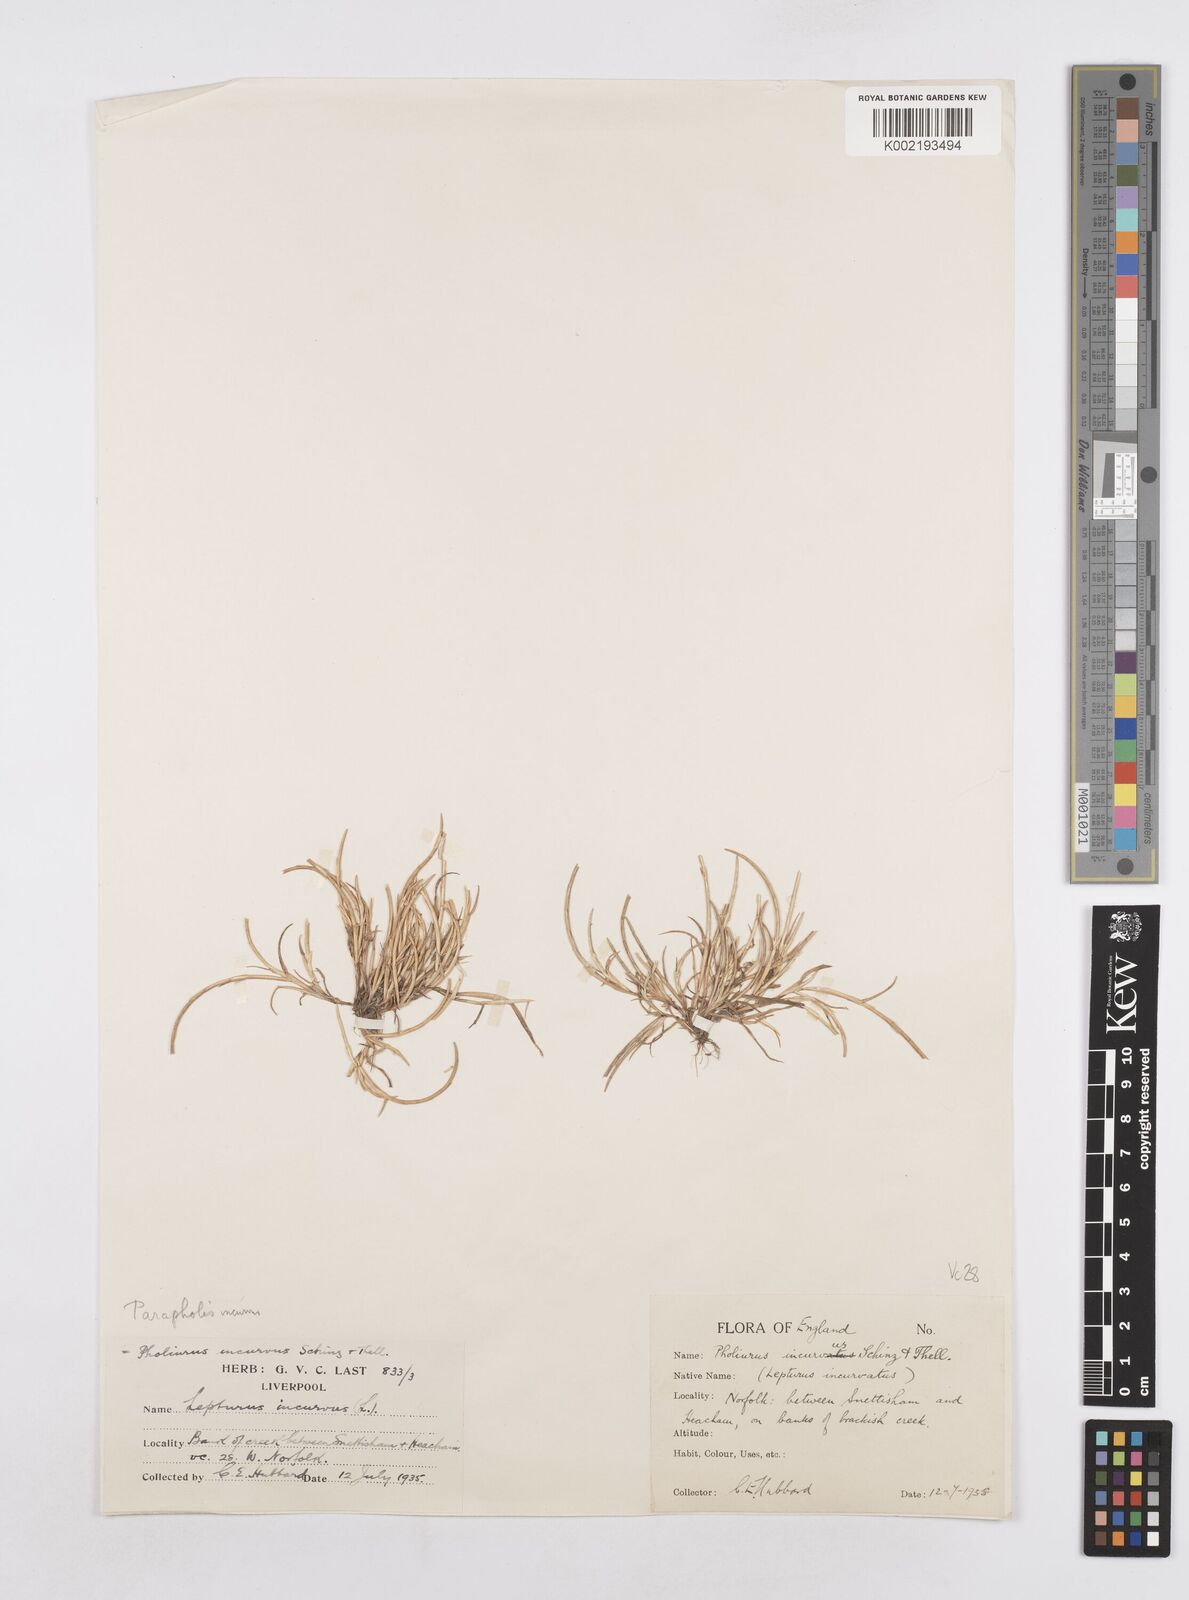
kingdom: Plantae
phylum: Tracheophyta
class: Liliopsida
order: Poales
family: Poaceae
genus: Parapholis
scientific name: Parapholis incurva
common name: Curved sicklegrass
